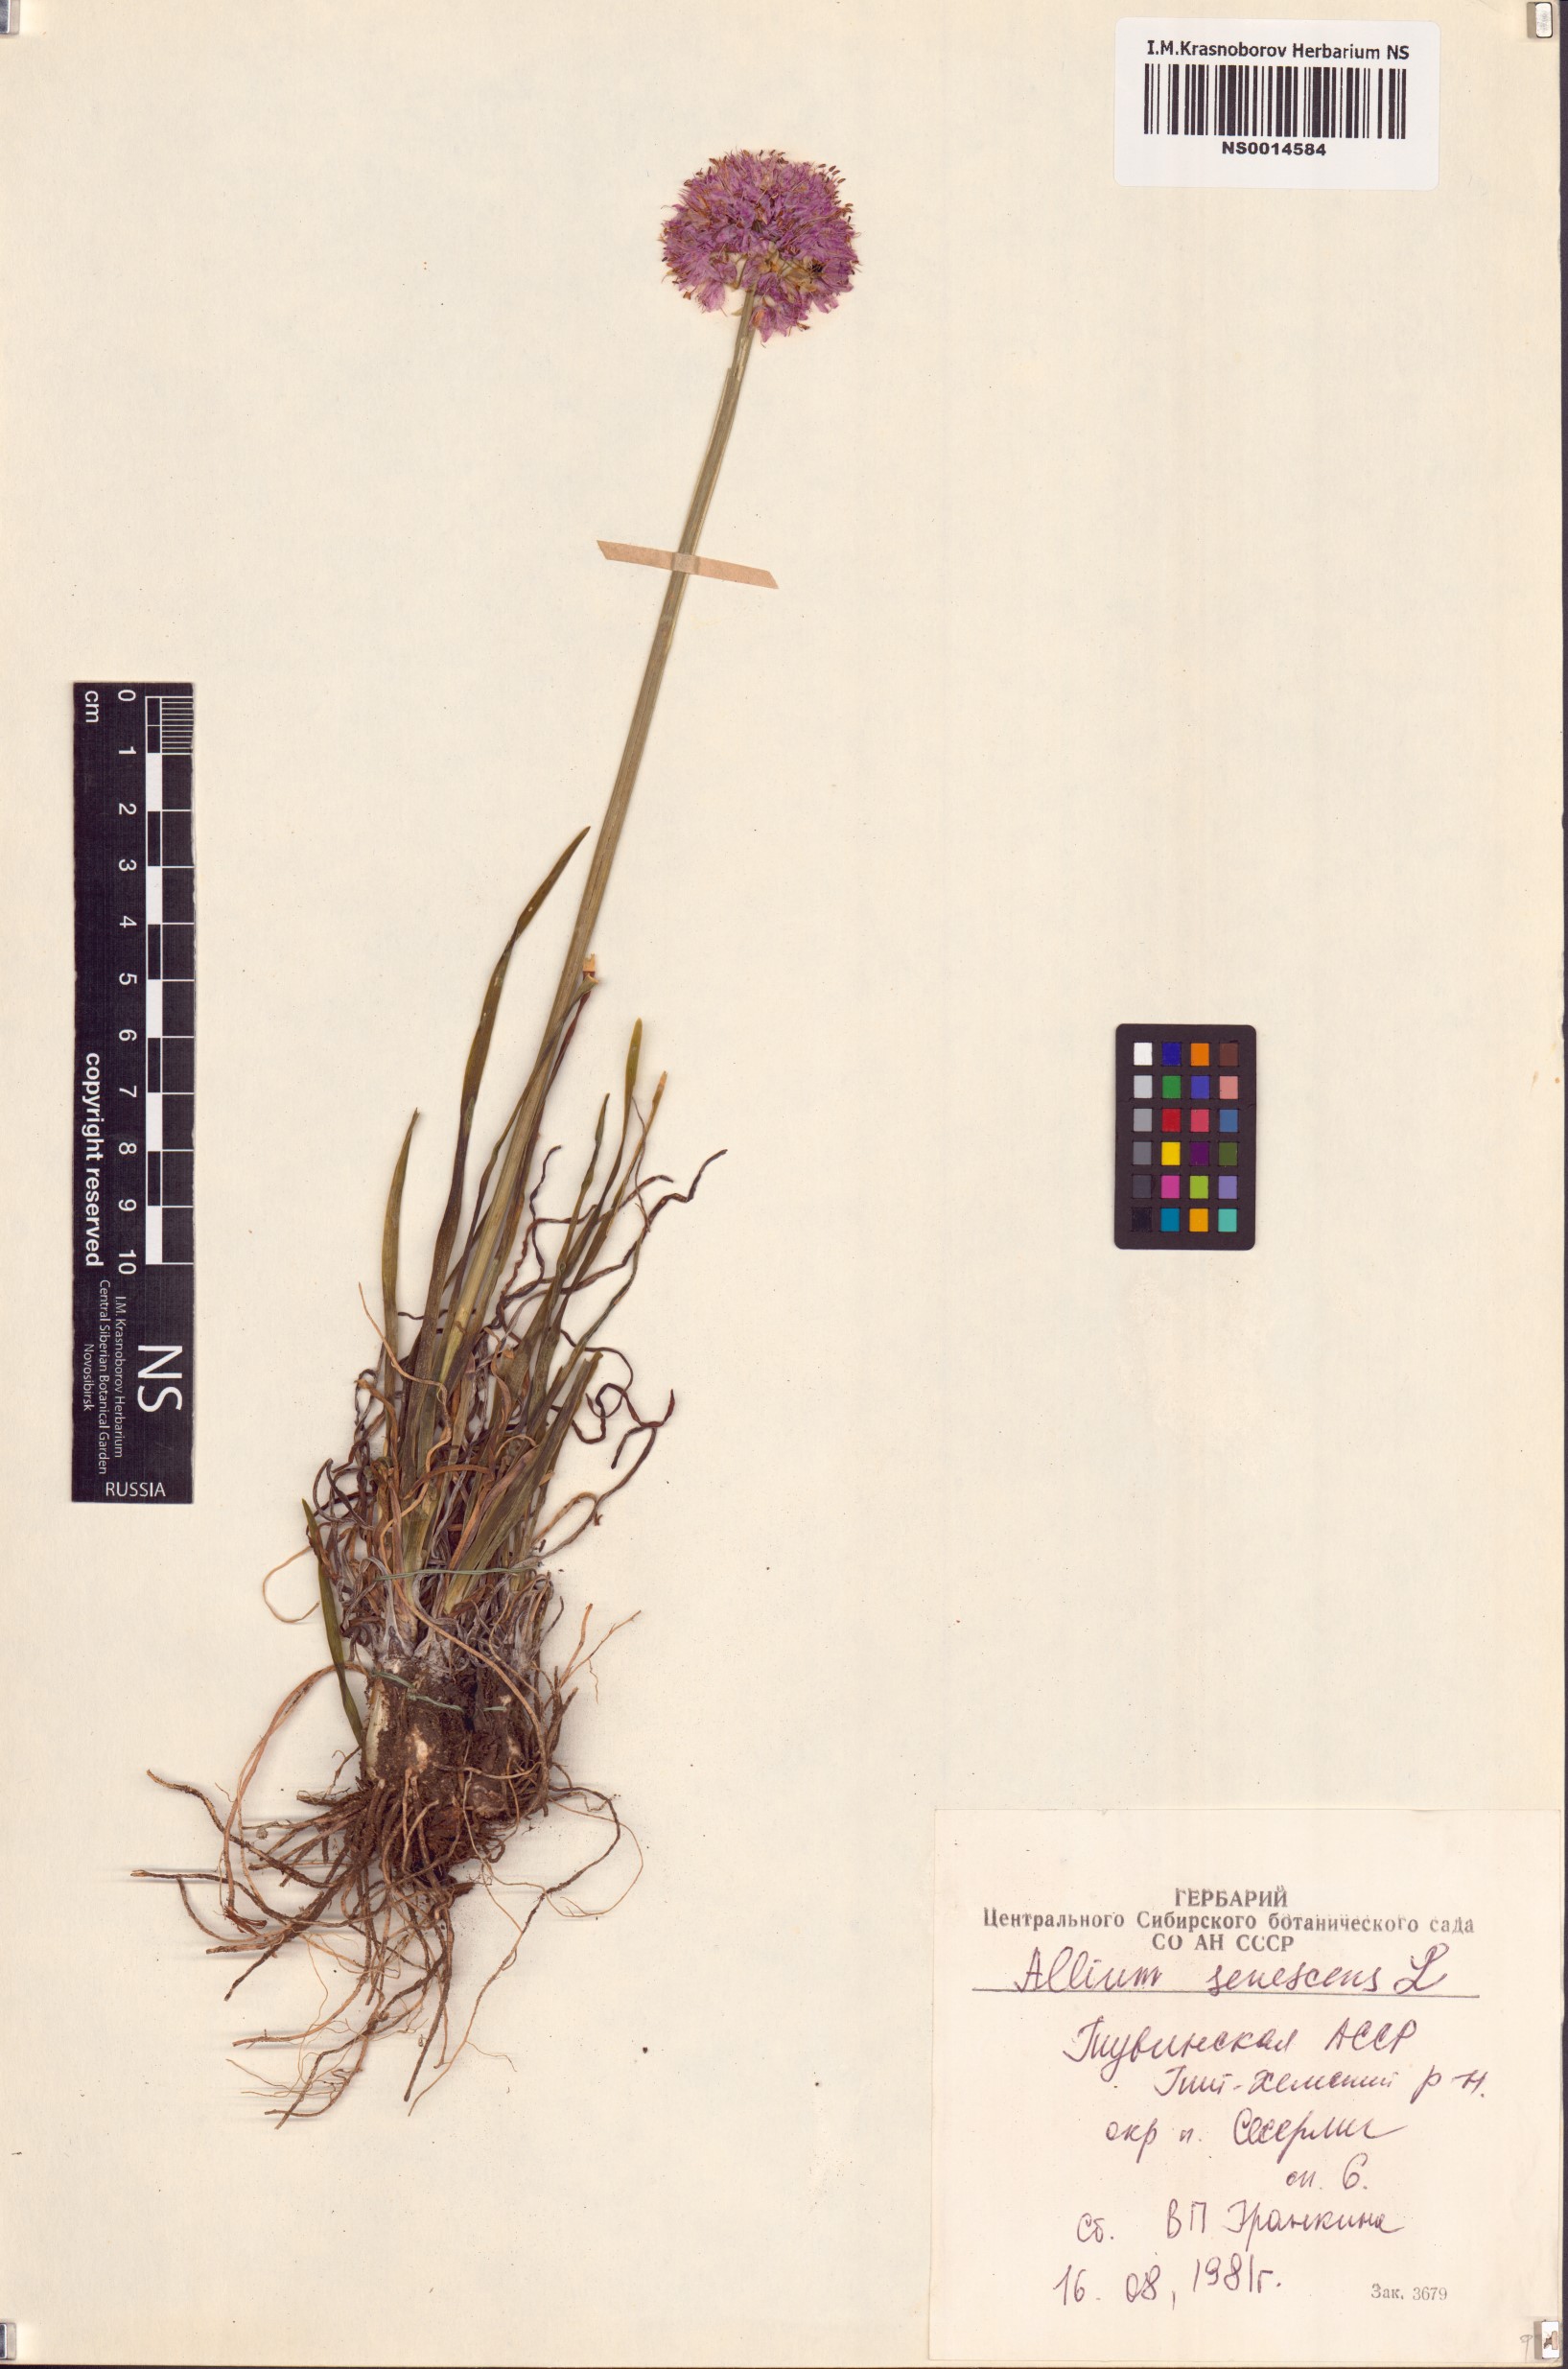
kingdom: Plantae
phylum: Tracheophyta
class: Liliopsida
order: Asparagales
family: Amaryllidaceae
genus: Allium
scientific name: Allium senescens
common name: German garlic
